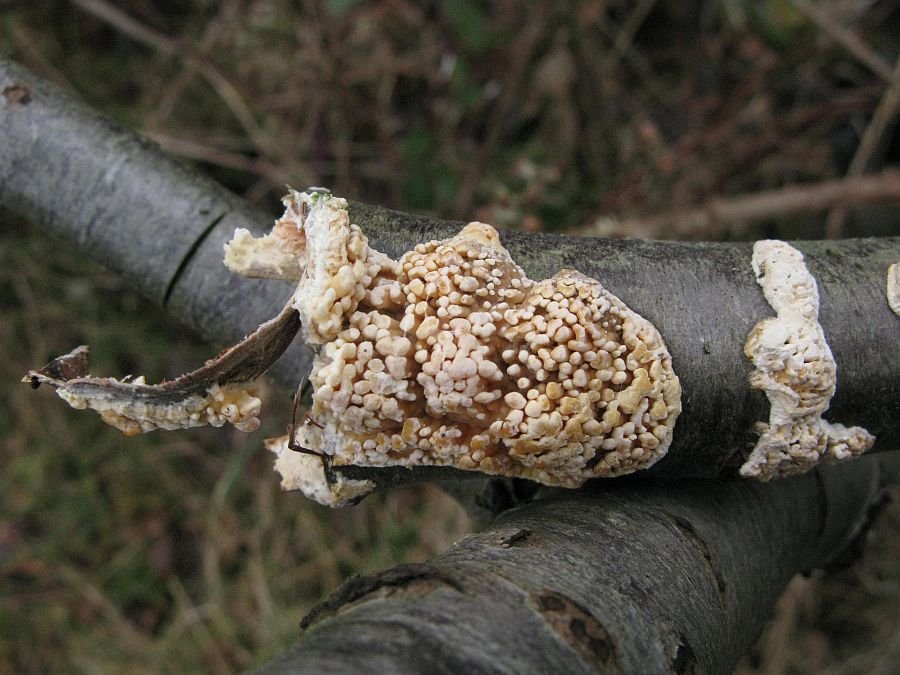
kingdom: Fungi
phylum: Basidiomycota
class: Agaricomycetes
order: Hymenochaetales
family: Schizoporaceae
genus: Xylodon
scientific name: Xylodon radula
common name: grovtandet kalkskind
